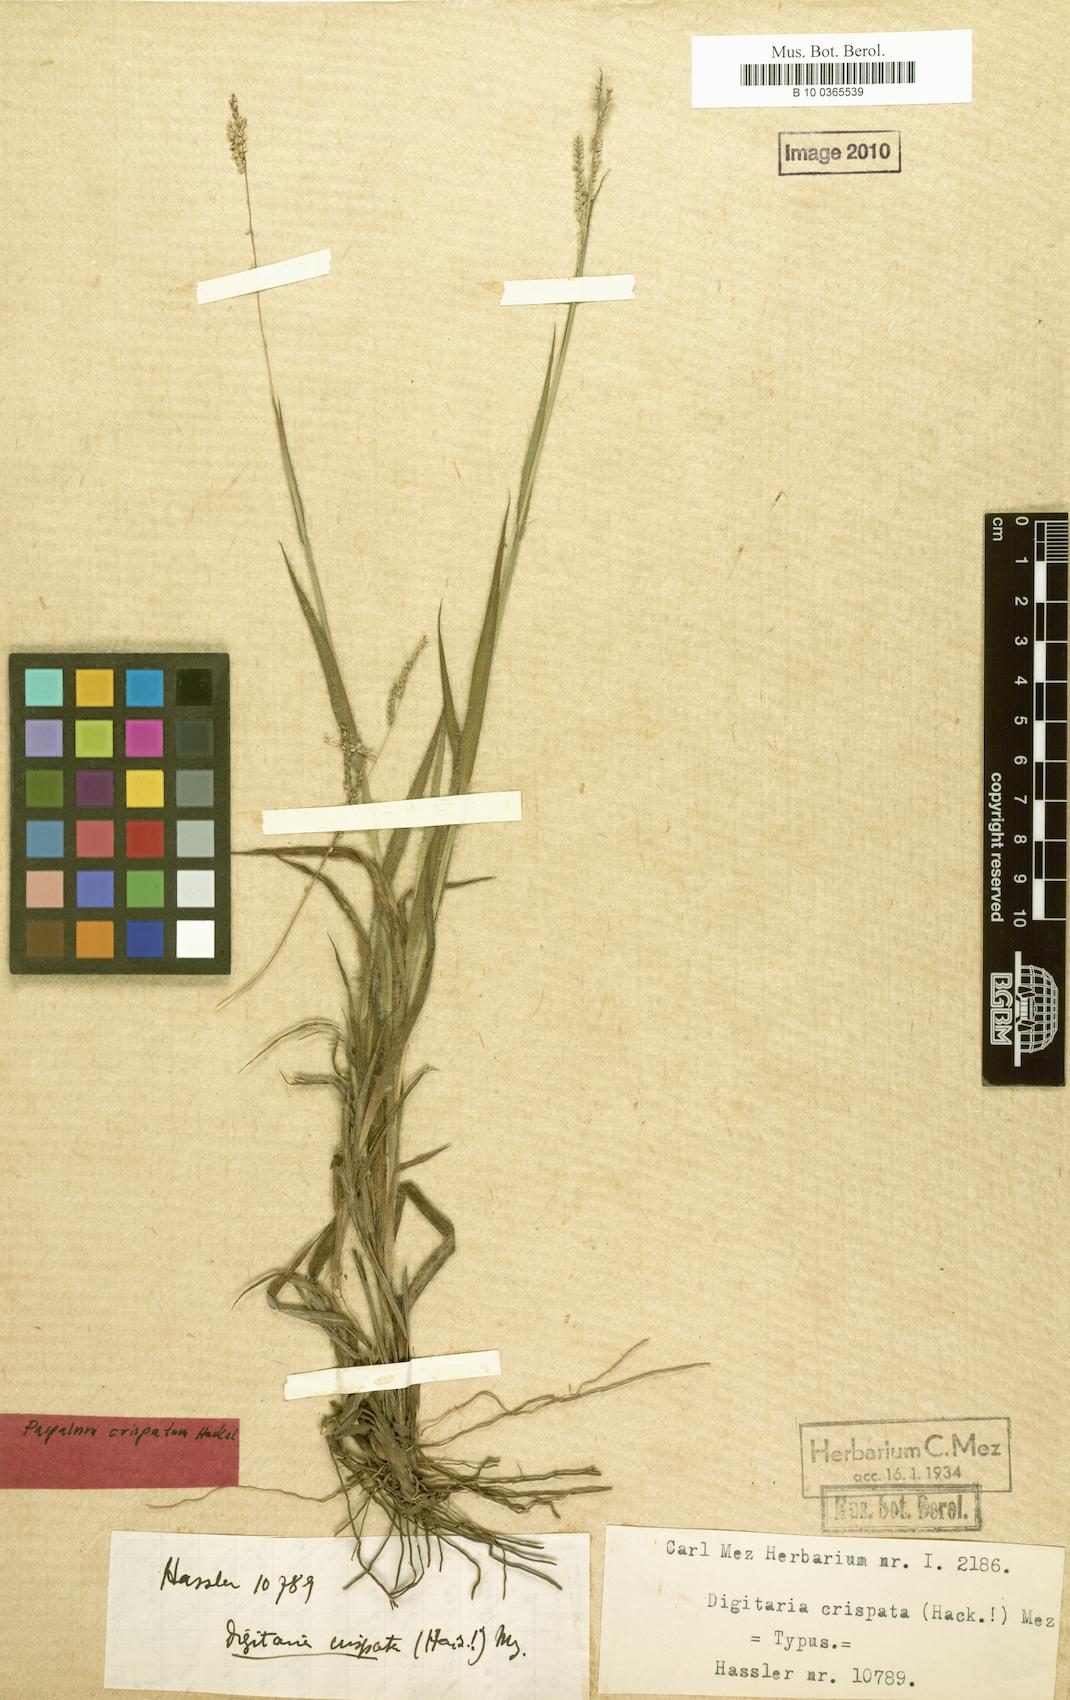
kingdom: Plantae
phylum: Tracheophyta
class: Liliopsida
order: Poales
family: Poaceae
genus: Paspalum
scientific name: Paspalum crispatum
